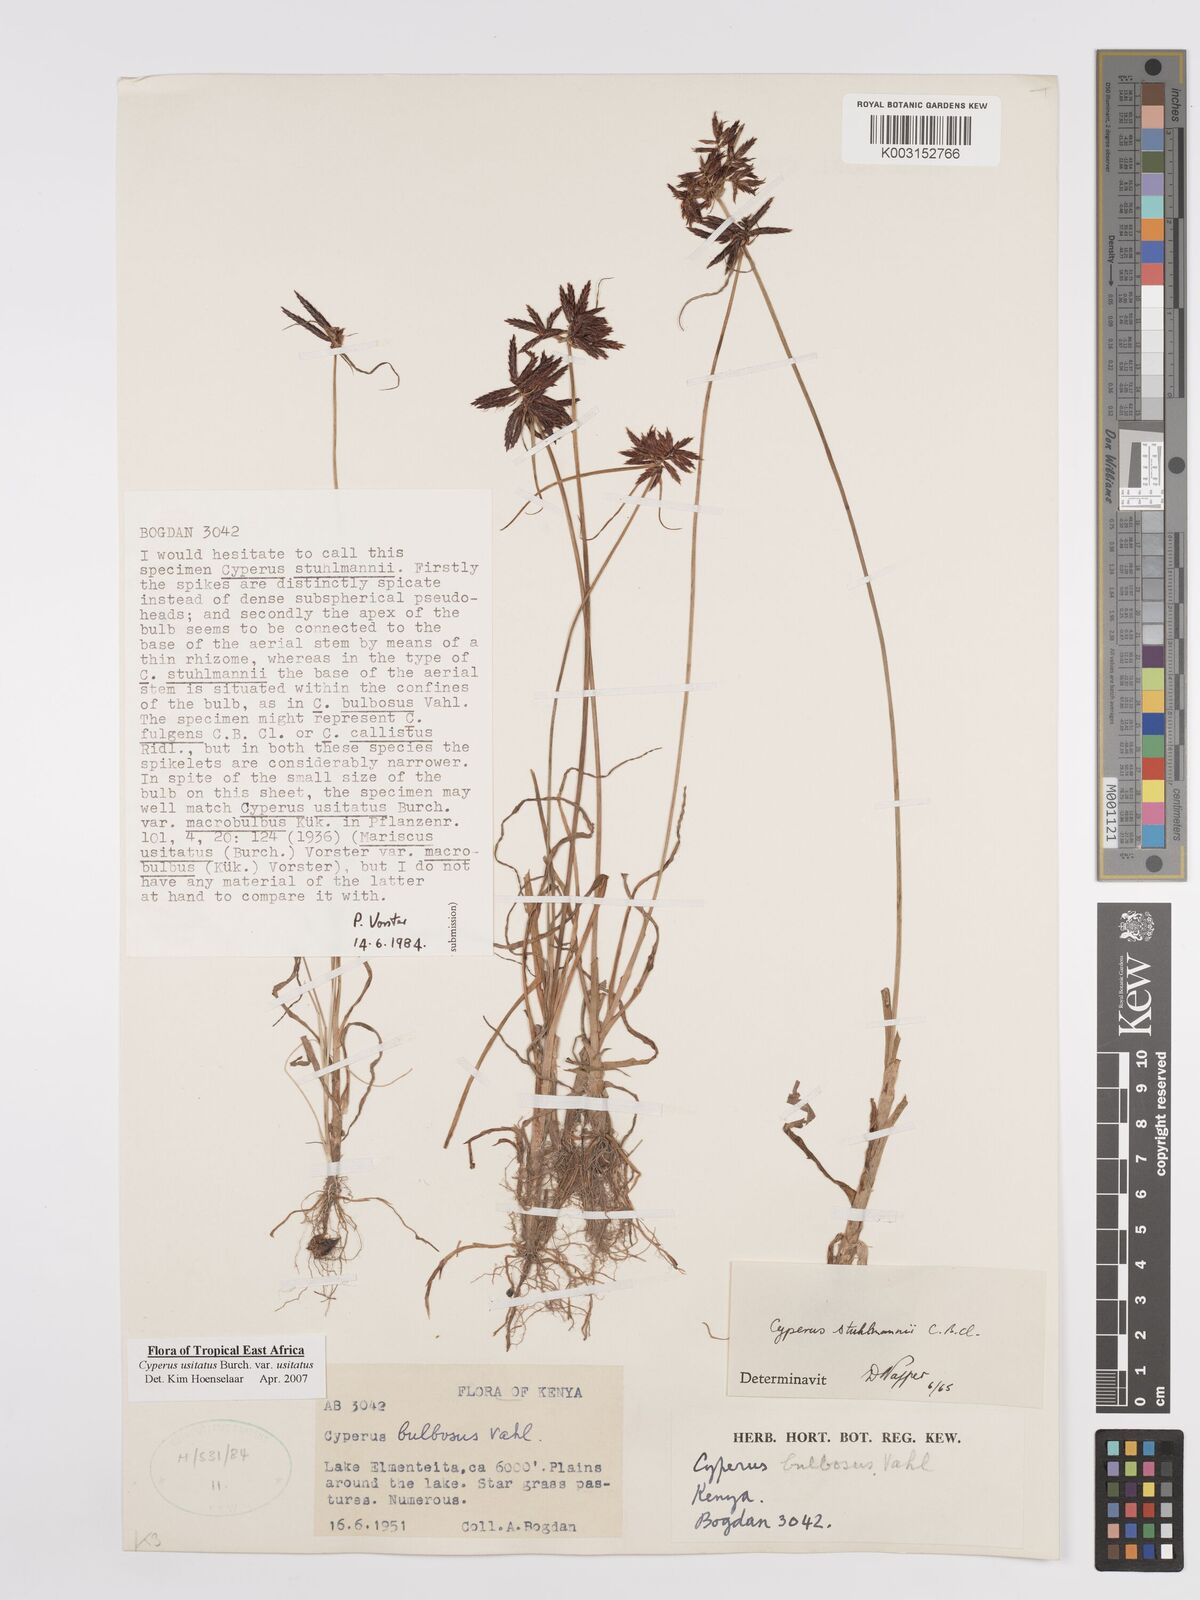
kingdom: Plantae
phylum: Tracheophyta
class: Liliopsida
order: Poales
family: Cyperaceae
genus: Cyperus
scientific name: Cyperus usitatus
